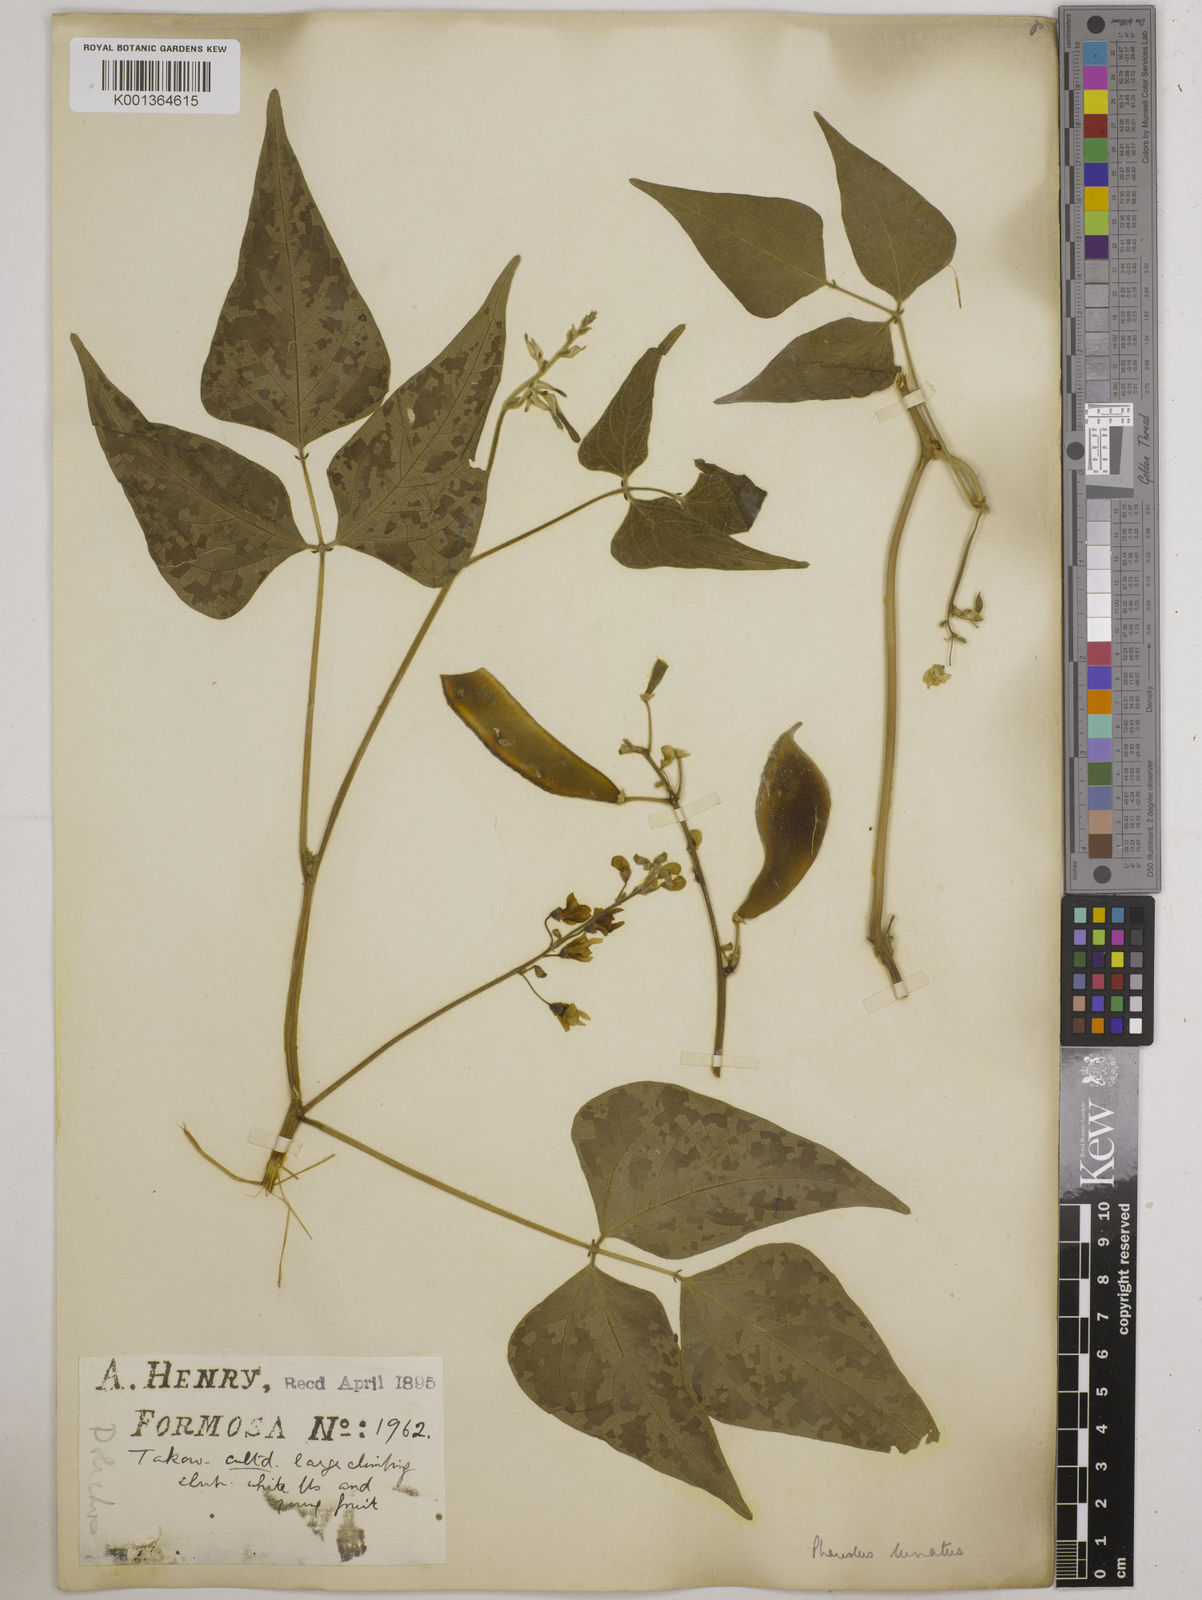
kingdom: Plantae
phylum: Tracheophyta
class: Magnoliopsida
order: Fabales
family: Fabaceae
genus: Phaseolus
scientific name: Phaseolus lunatus
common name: Sieva bean
